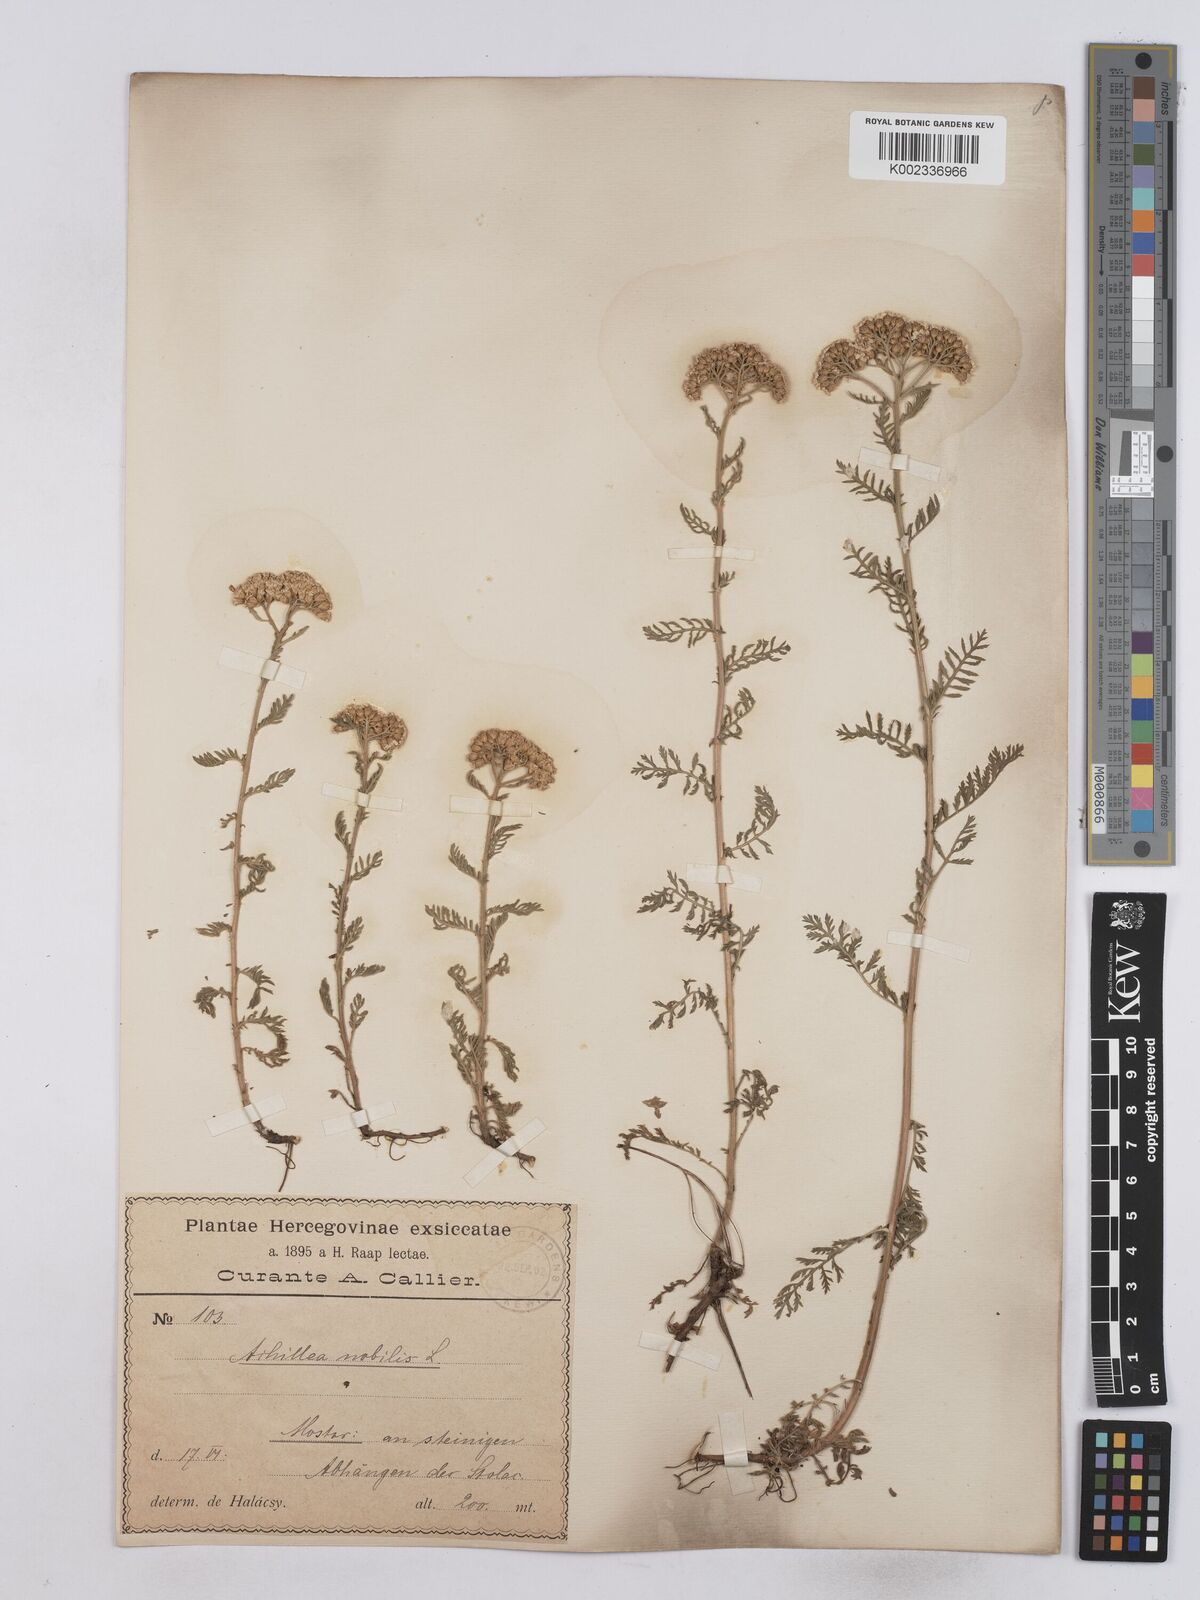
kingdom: Plantae
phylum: Tracheophyta
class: Magnoliopsida
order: Asterales
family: Asteraceae
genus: Achillea
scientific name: Achillea nobilis
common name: Noble yarrow
